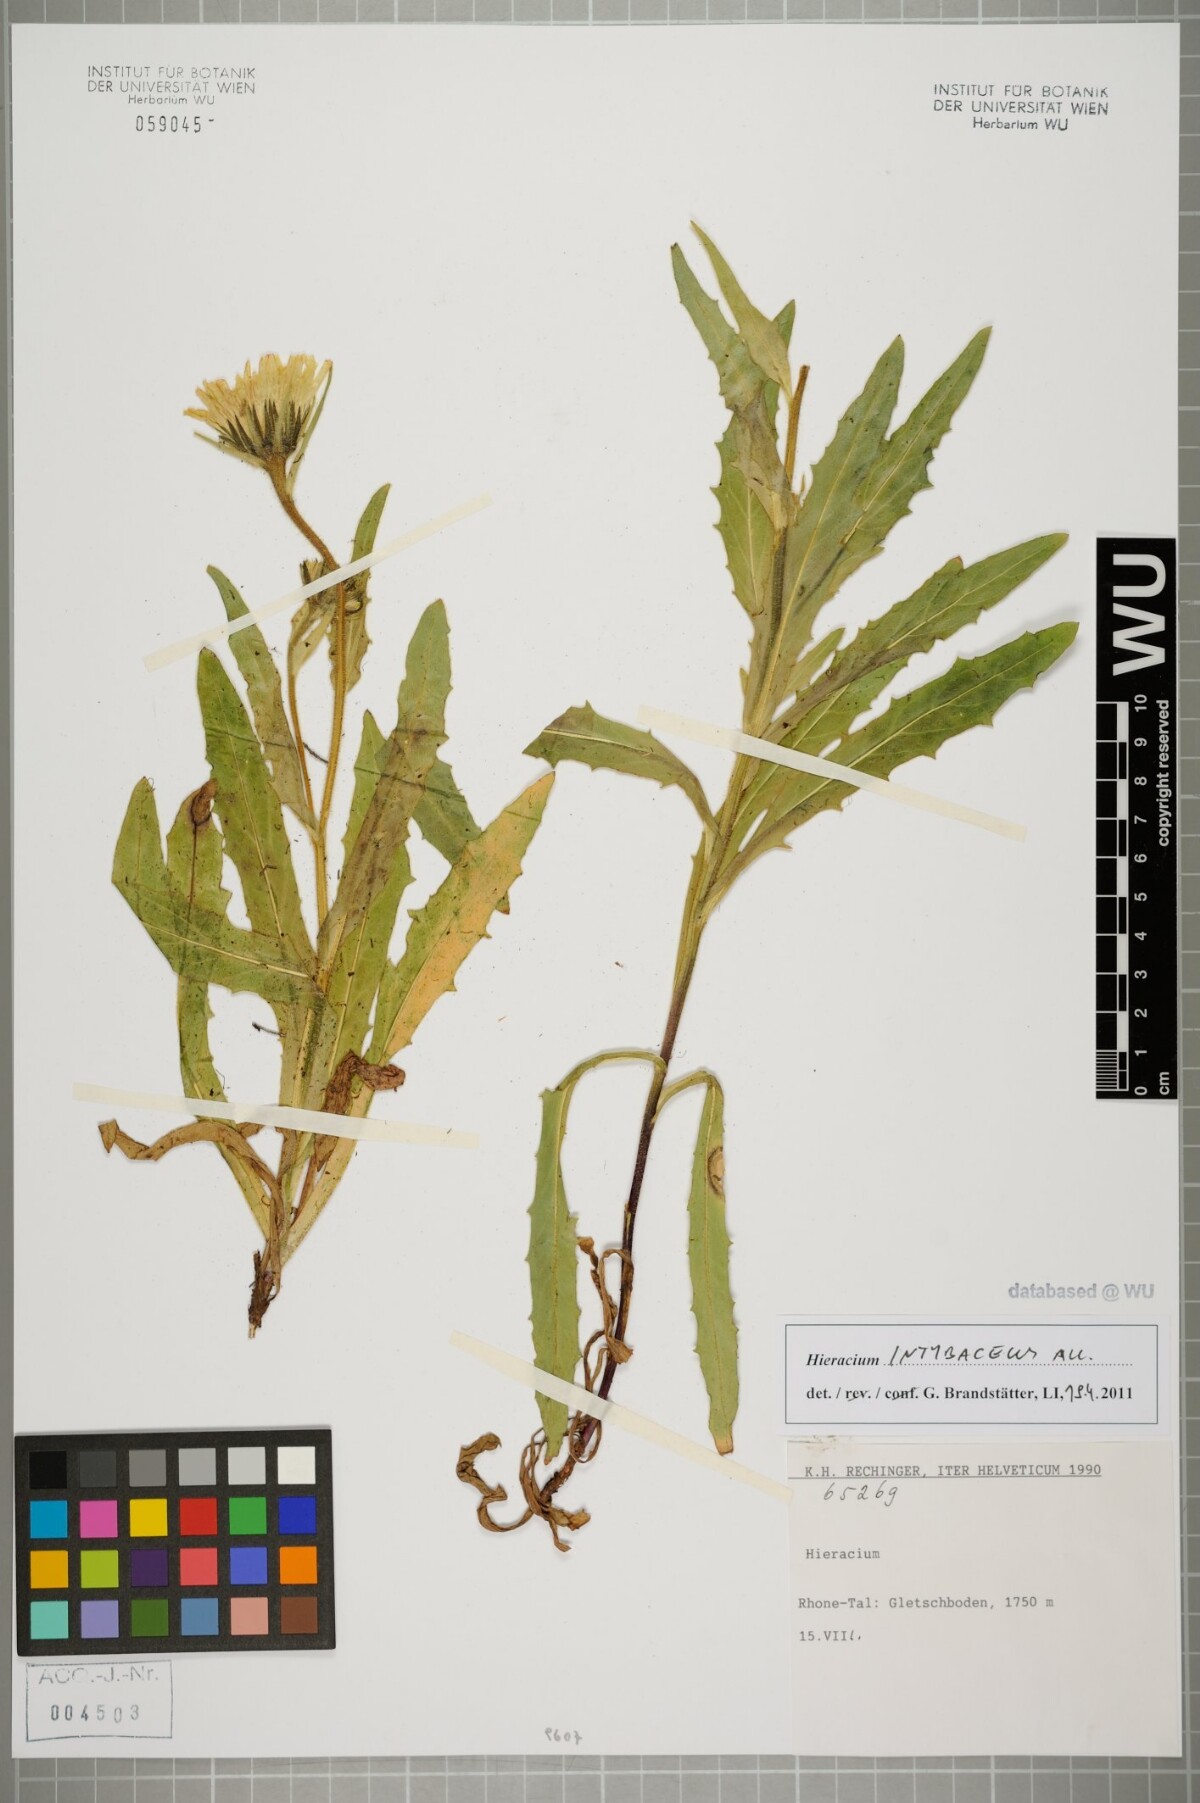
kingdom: Plantae
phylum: Tracheophyta
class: Magnoliopsida
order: Asterales
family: Asteraceae
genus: Schlagintweitia
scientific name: Schlagintweitia intybacea
